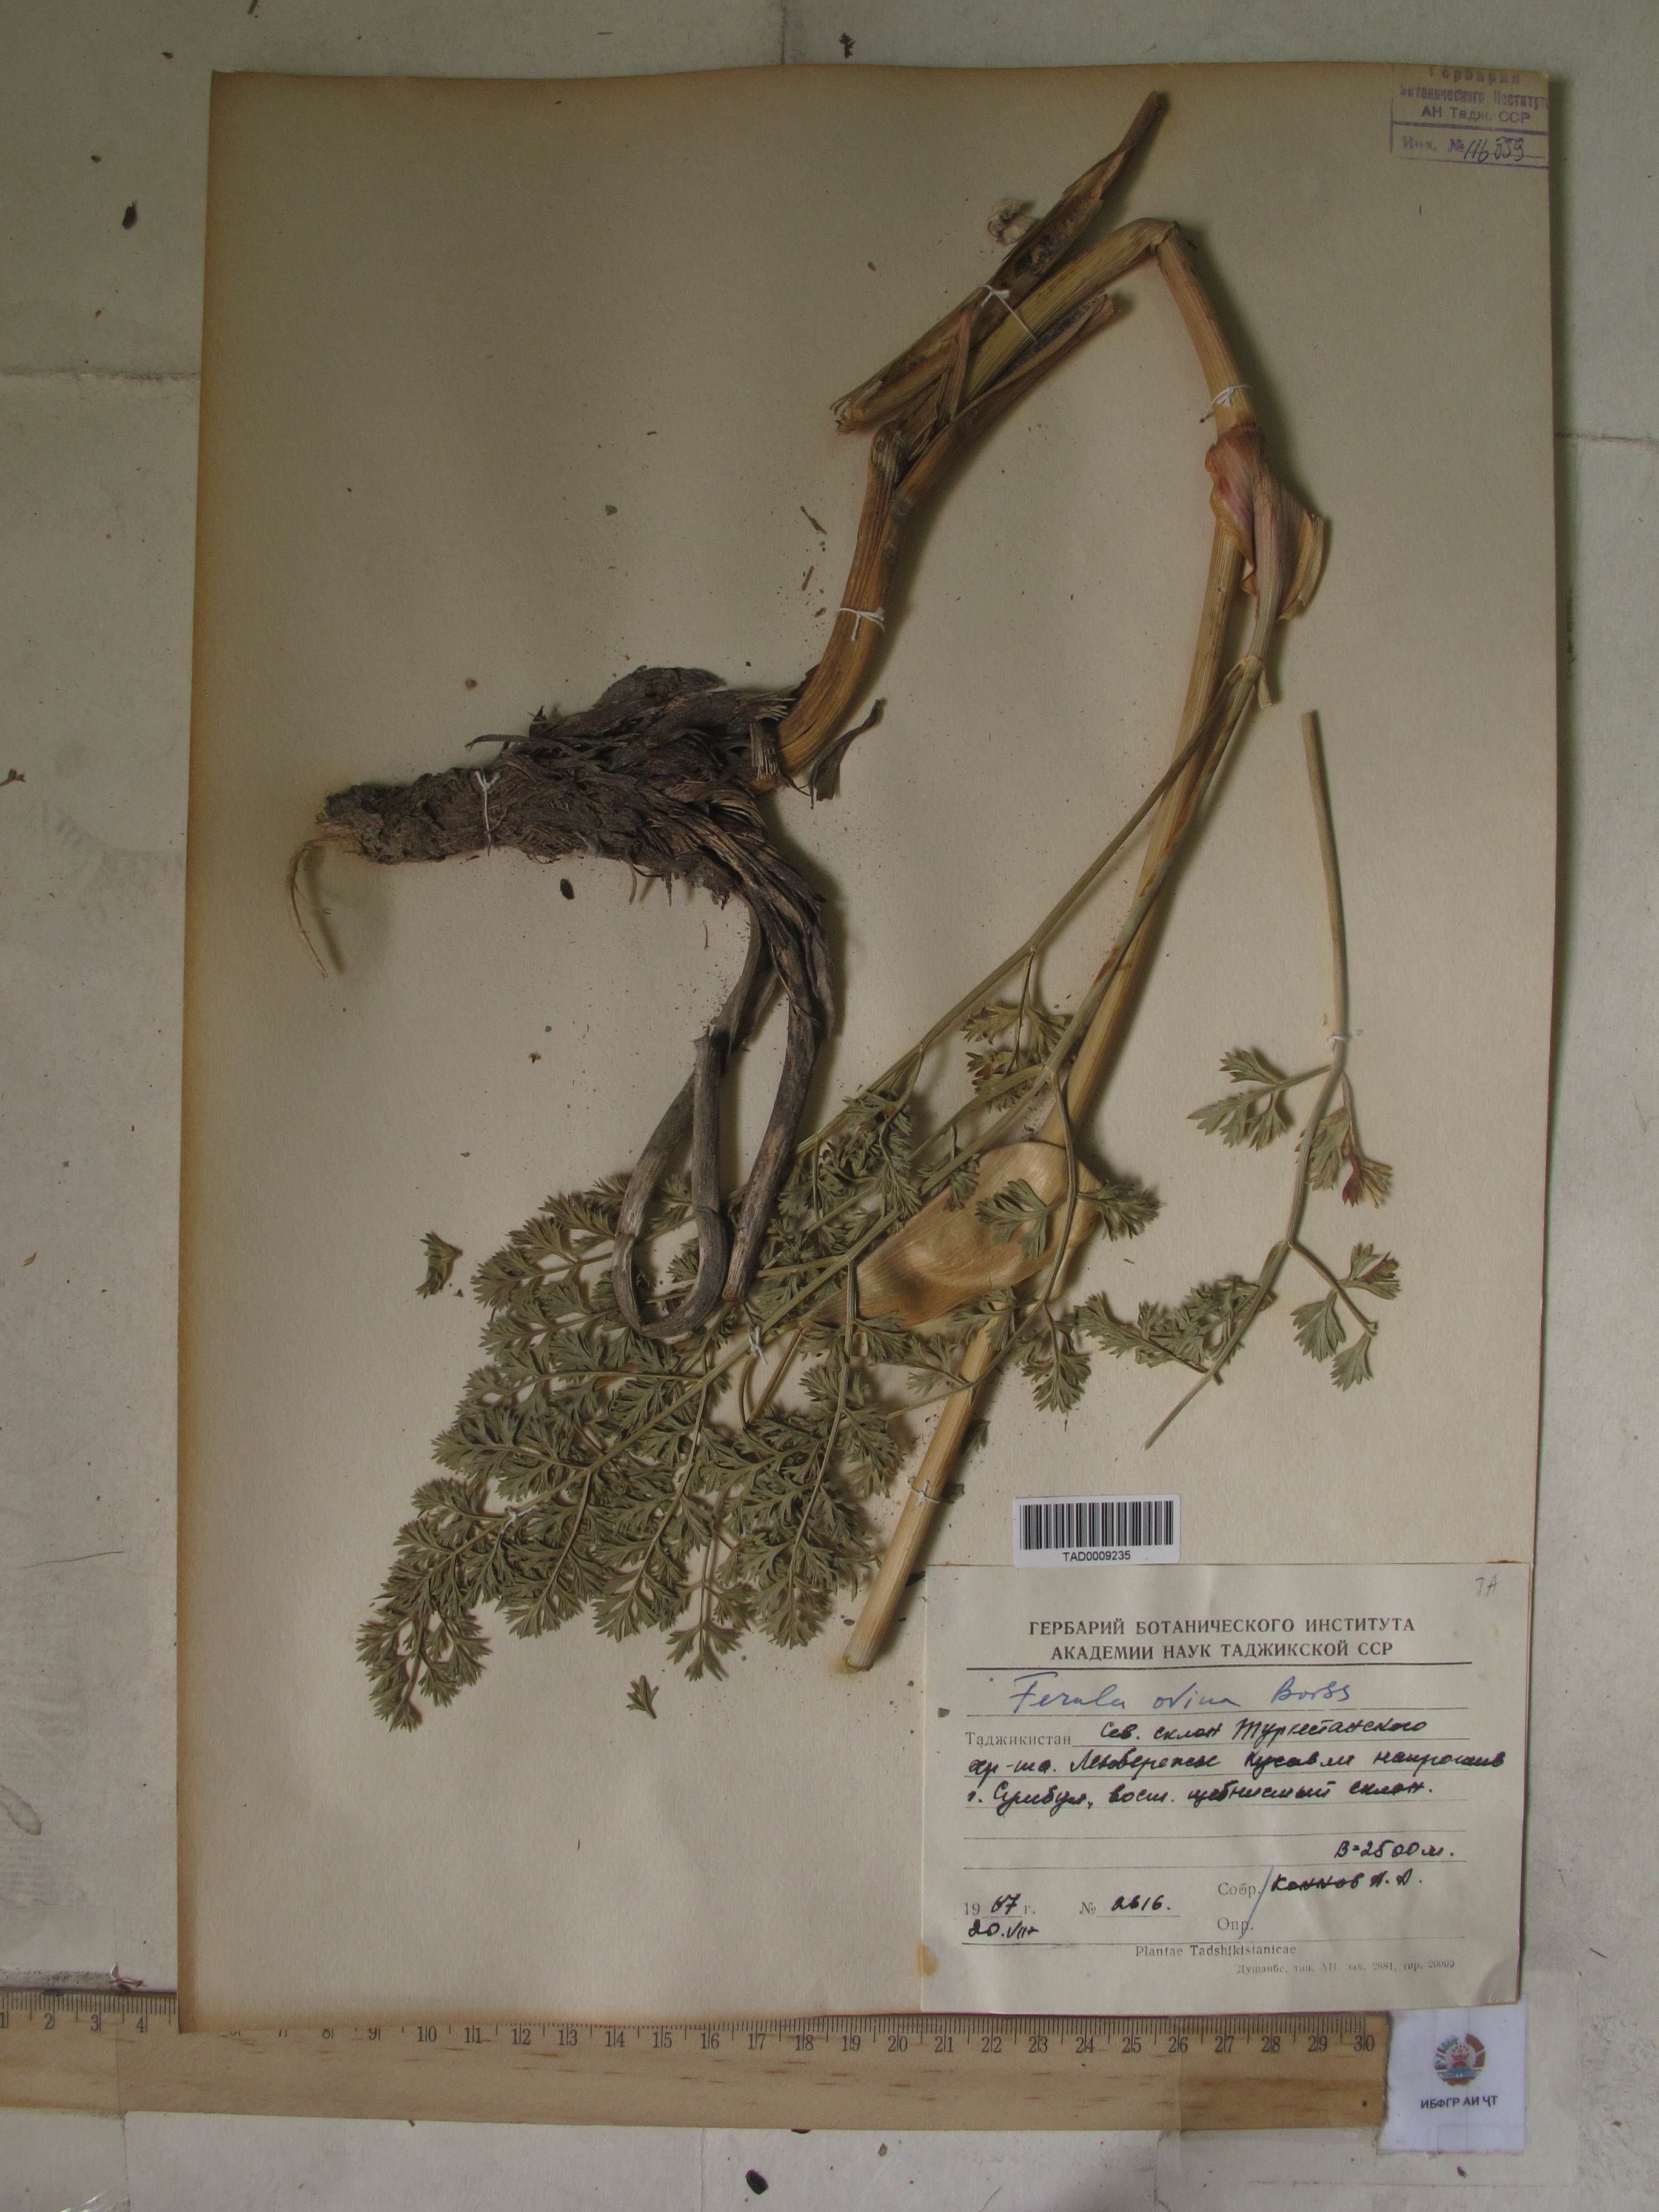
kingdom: Plantae
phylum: Tracheophyta
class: Magnoliopsida
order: Apiales
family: Apiaceae
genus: Ferula
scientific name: Ferula ovina
